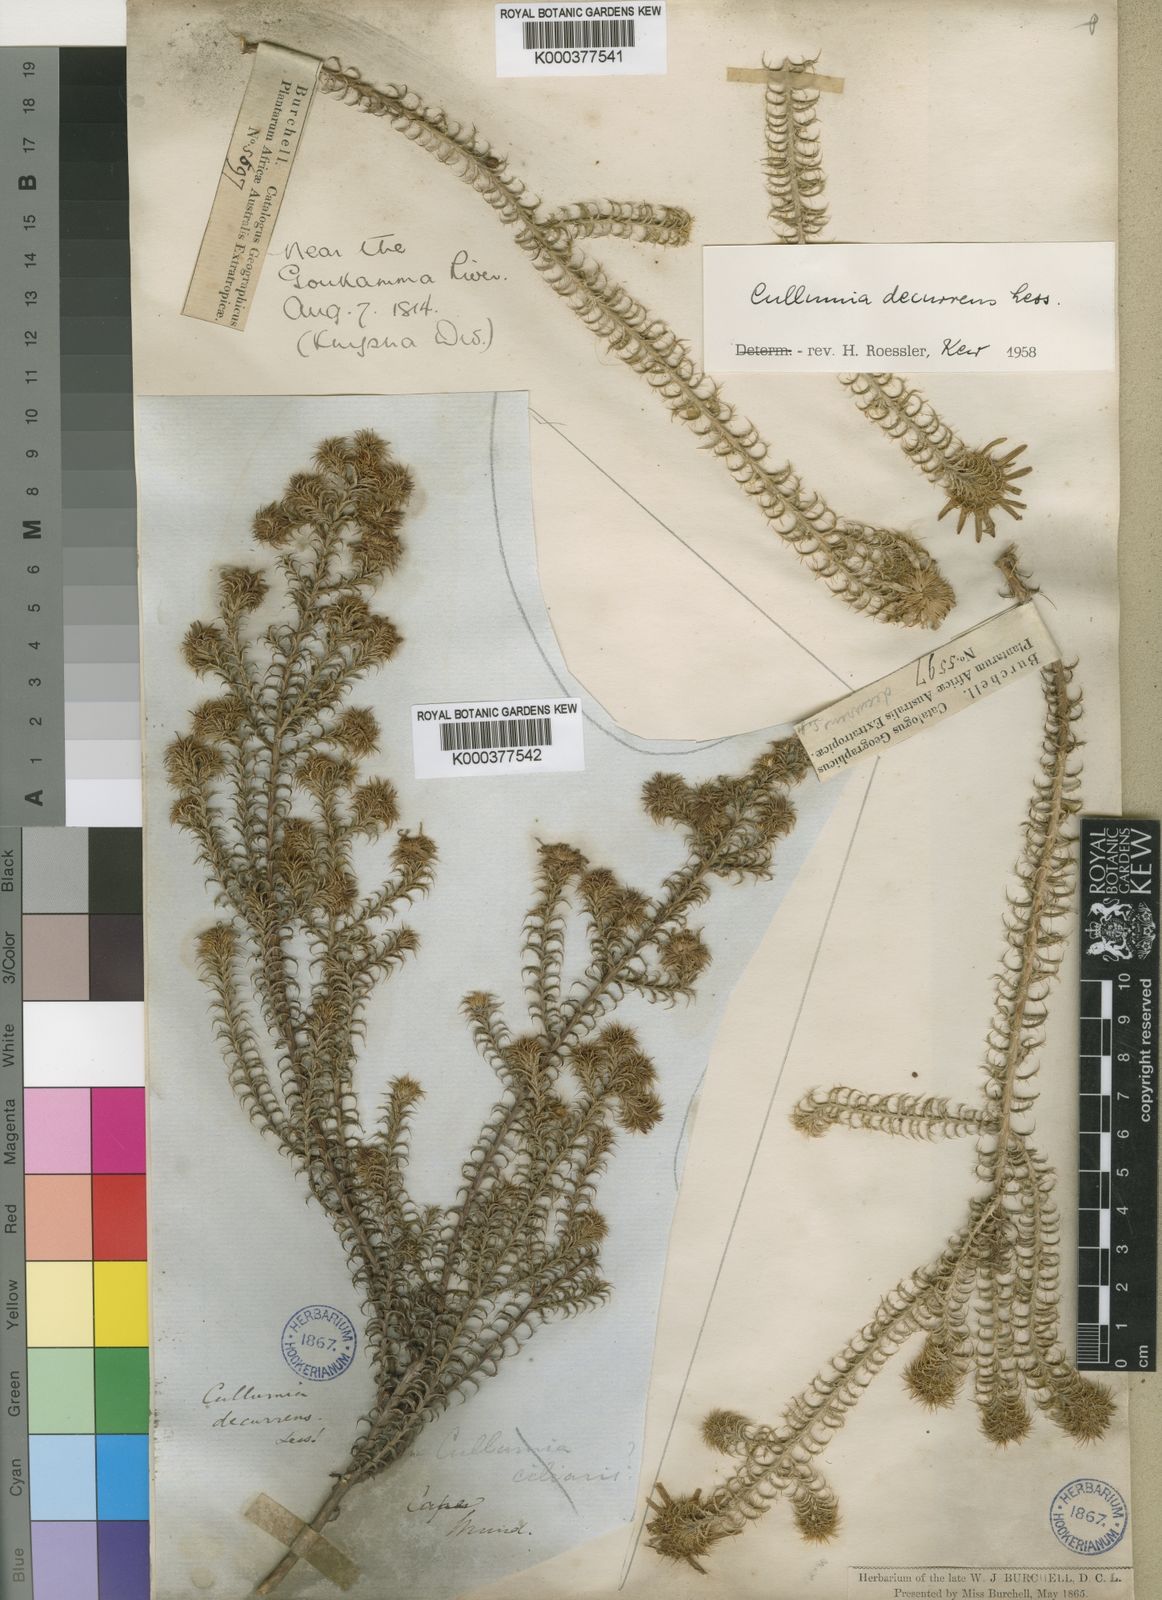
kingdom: Plantae
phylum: Tracheophyta
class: Magnoliopsida
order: Asterales
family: Asteraceae
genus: Cullumia
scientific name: Cullumia decurrens
